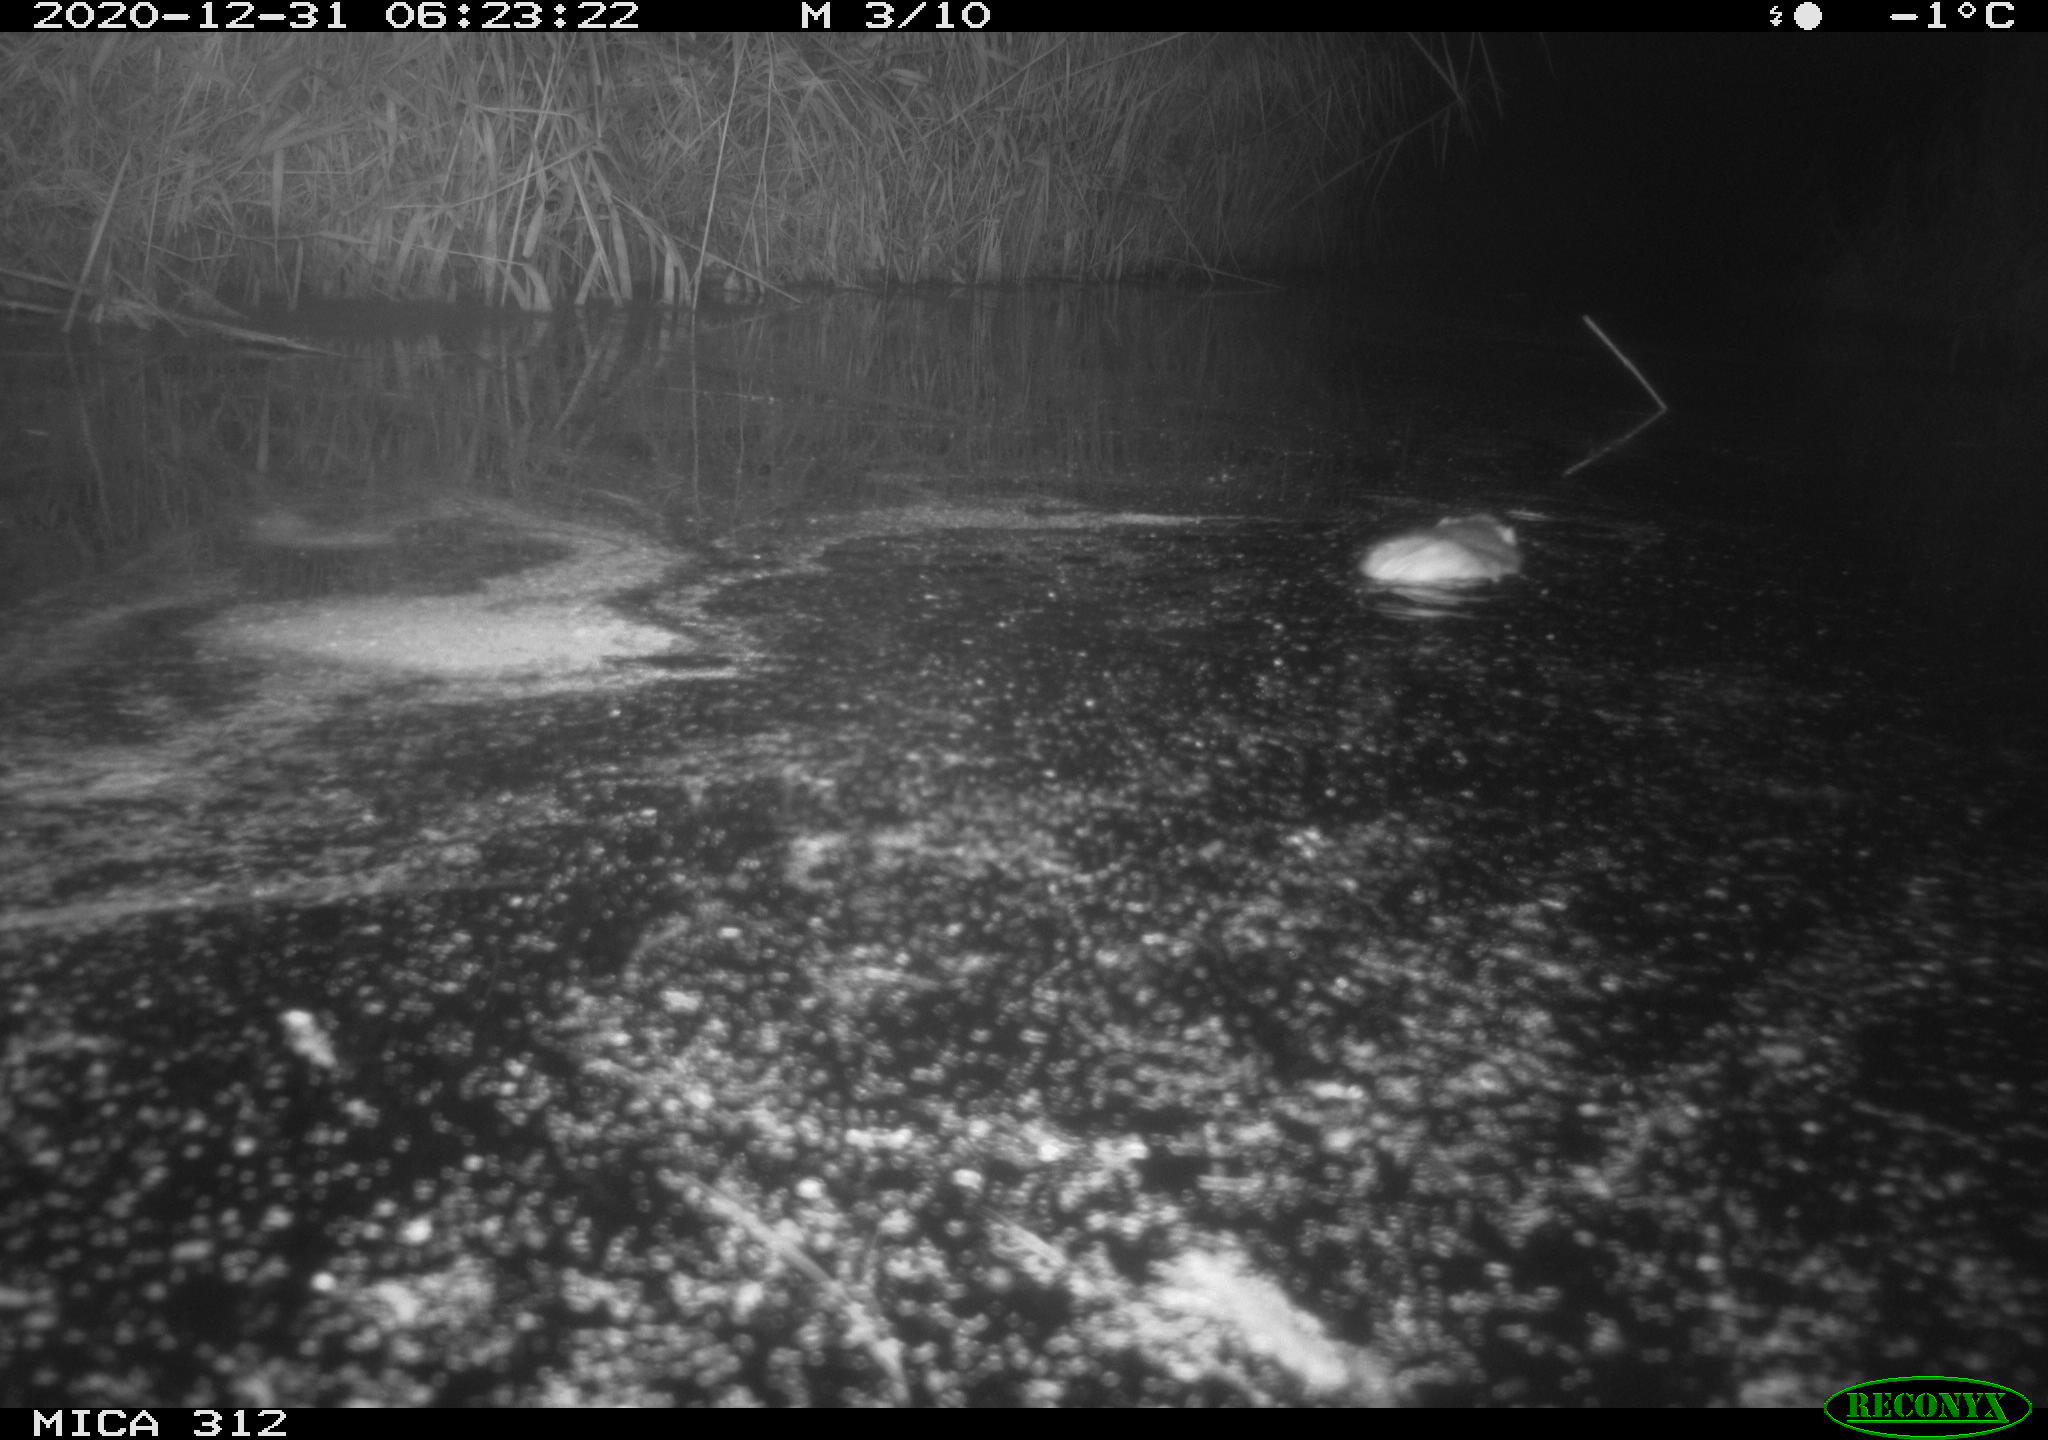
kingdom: Animalia
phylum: Chordata
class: Mammalia
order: Rodentia
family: Muridae
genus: Rattus
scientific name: Rattus norvegicus
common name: Brown rat
